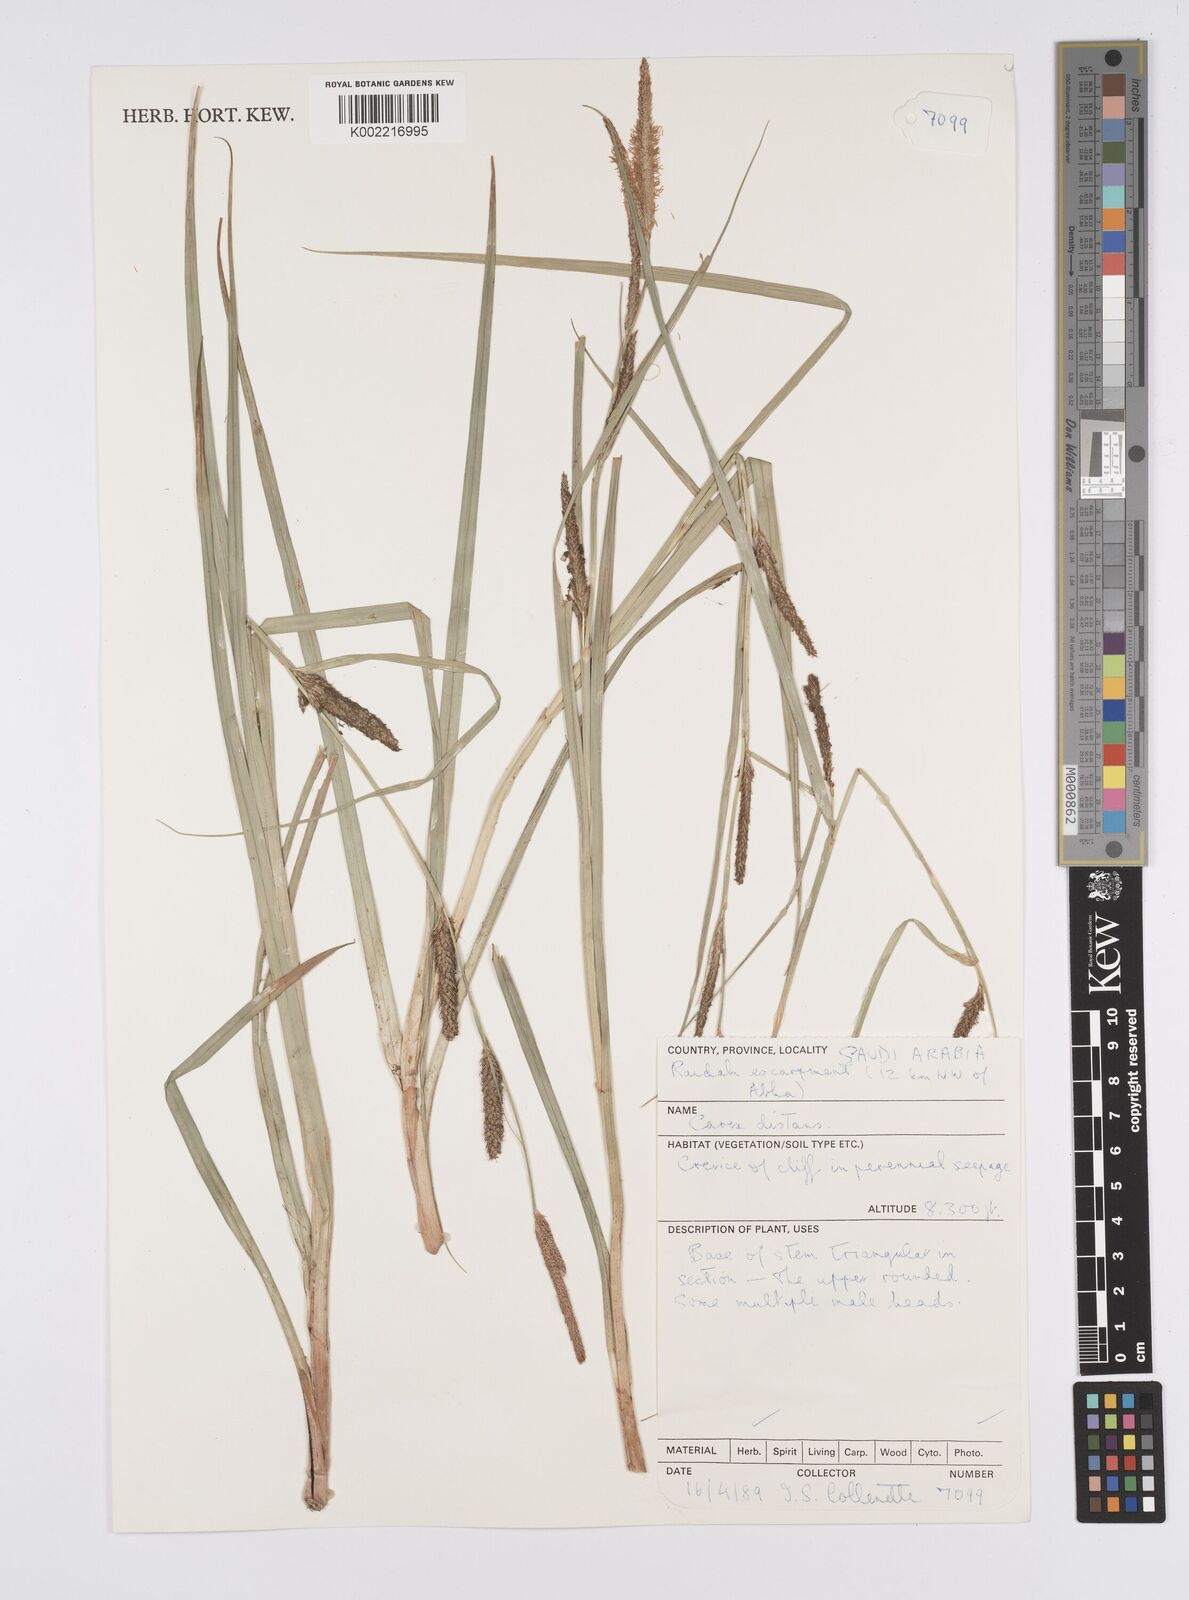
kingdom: Plantae
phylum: Tracheophyta
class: Liliopsida
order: Poales
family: Cyperaceae
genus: Carex
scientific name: Carex distans
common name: Distant sedge
